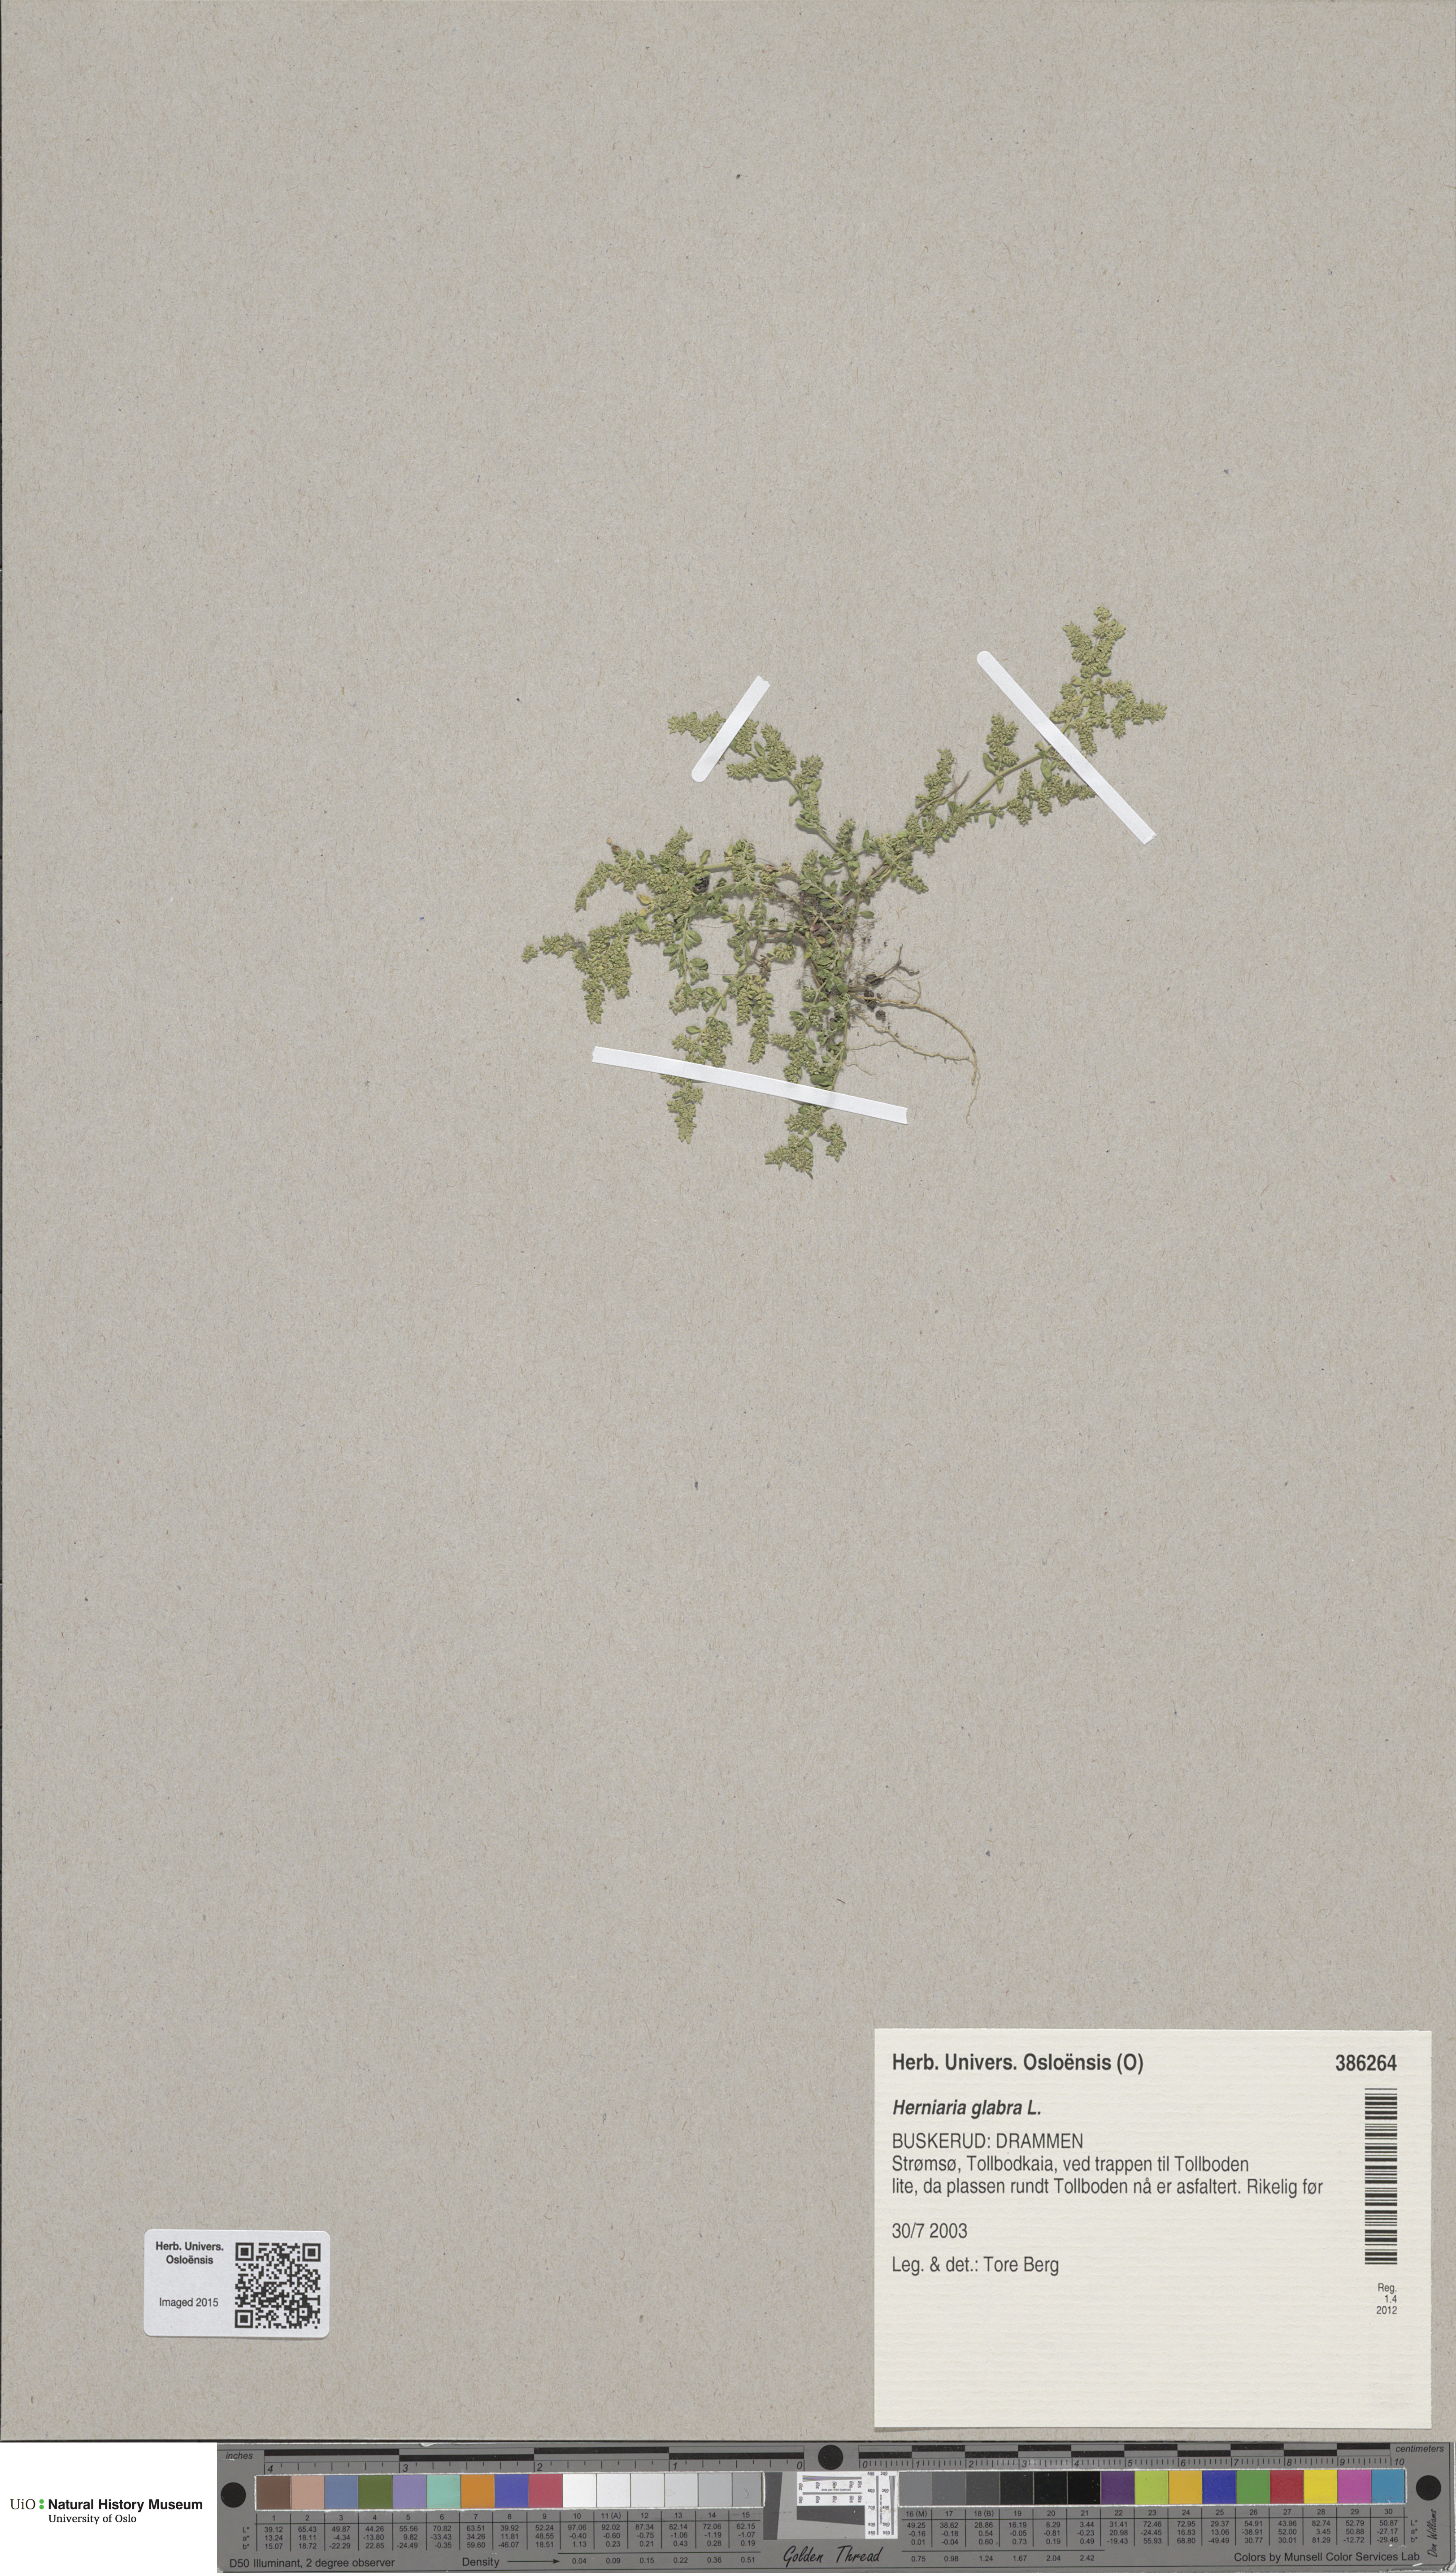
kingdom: Plantae
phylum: Tracheophyta
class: Magnoliopsida
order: Caryophyllales
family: Caryophyllaceae
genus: Herniaria
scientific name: Herniaria glabra
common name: Smooth rupturewort
